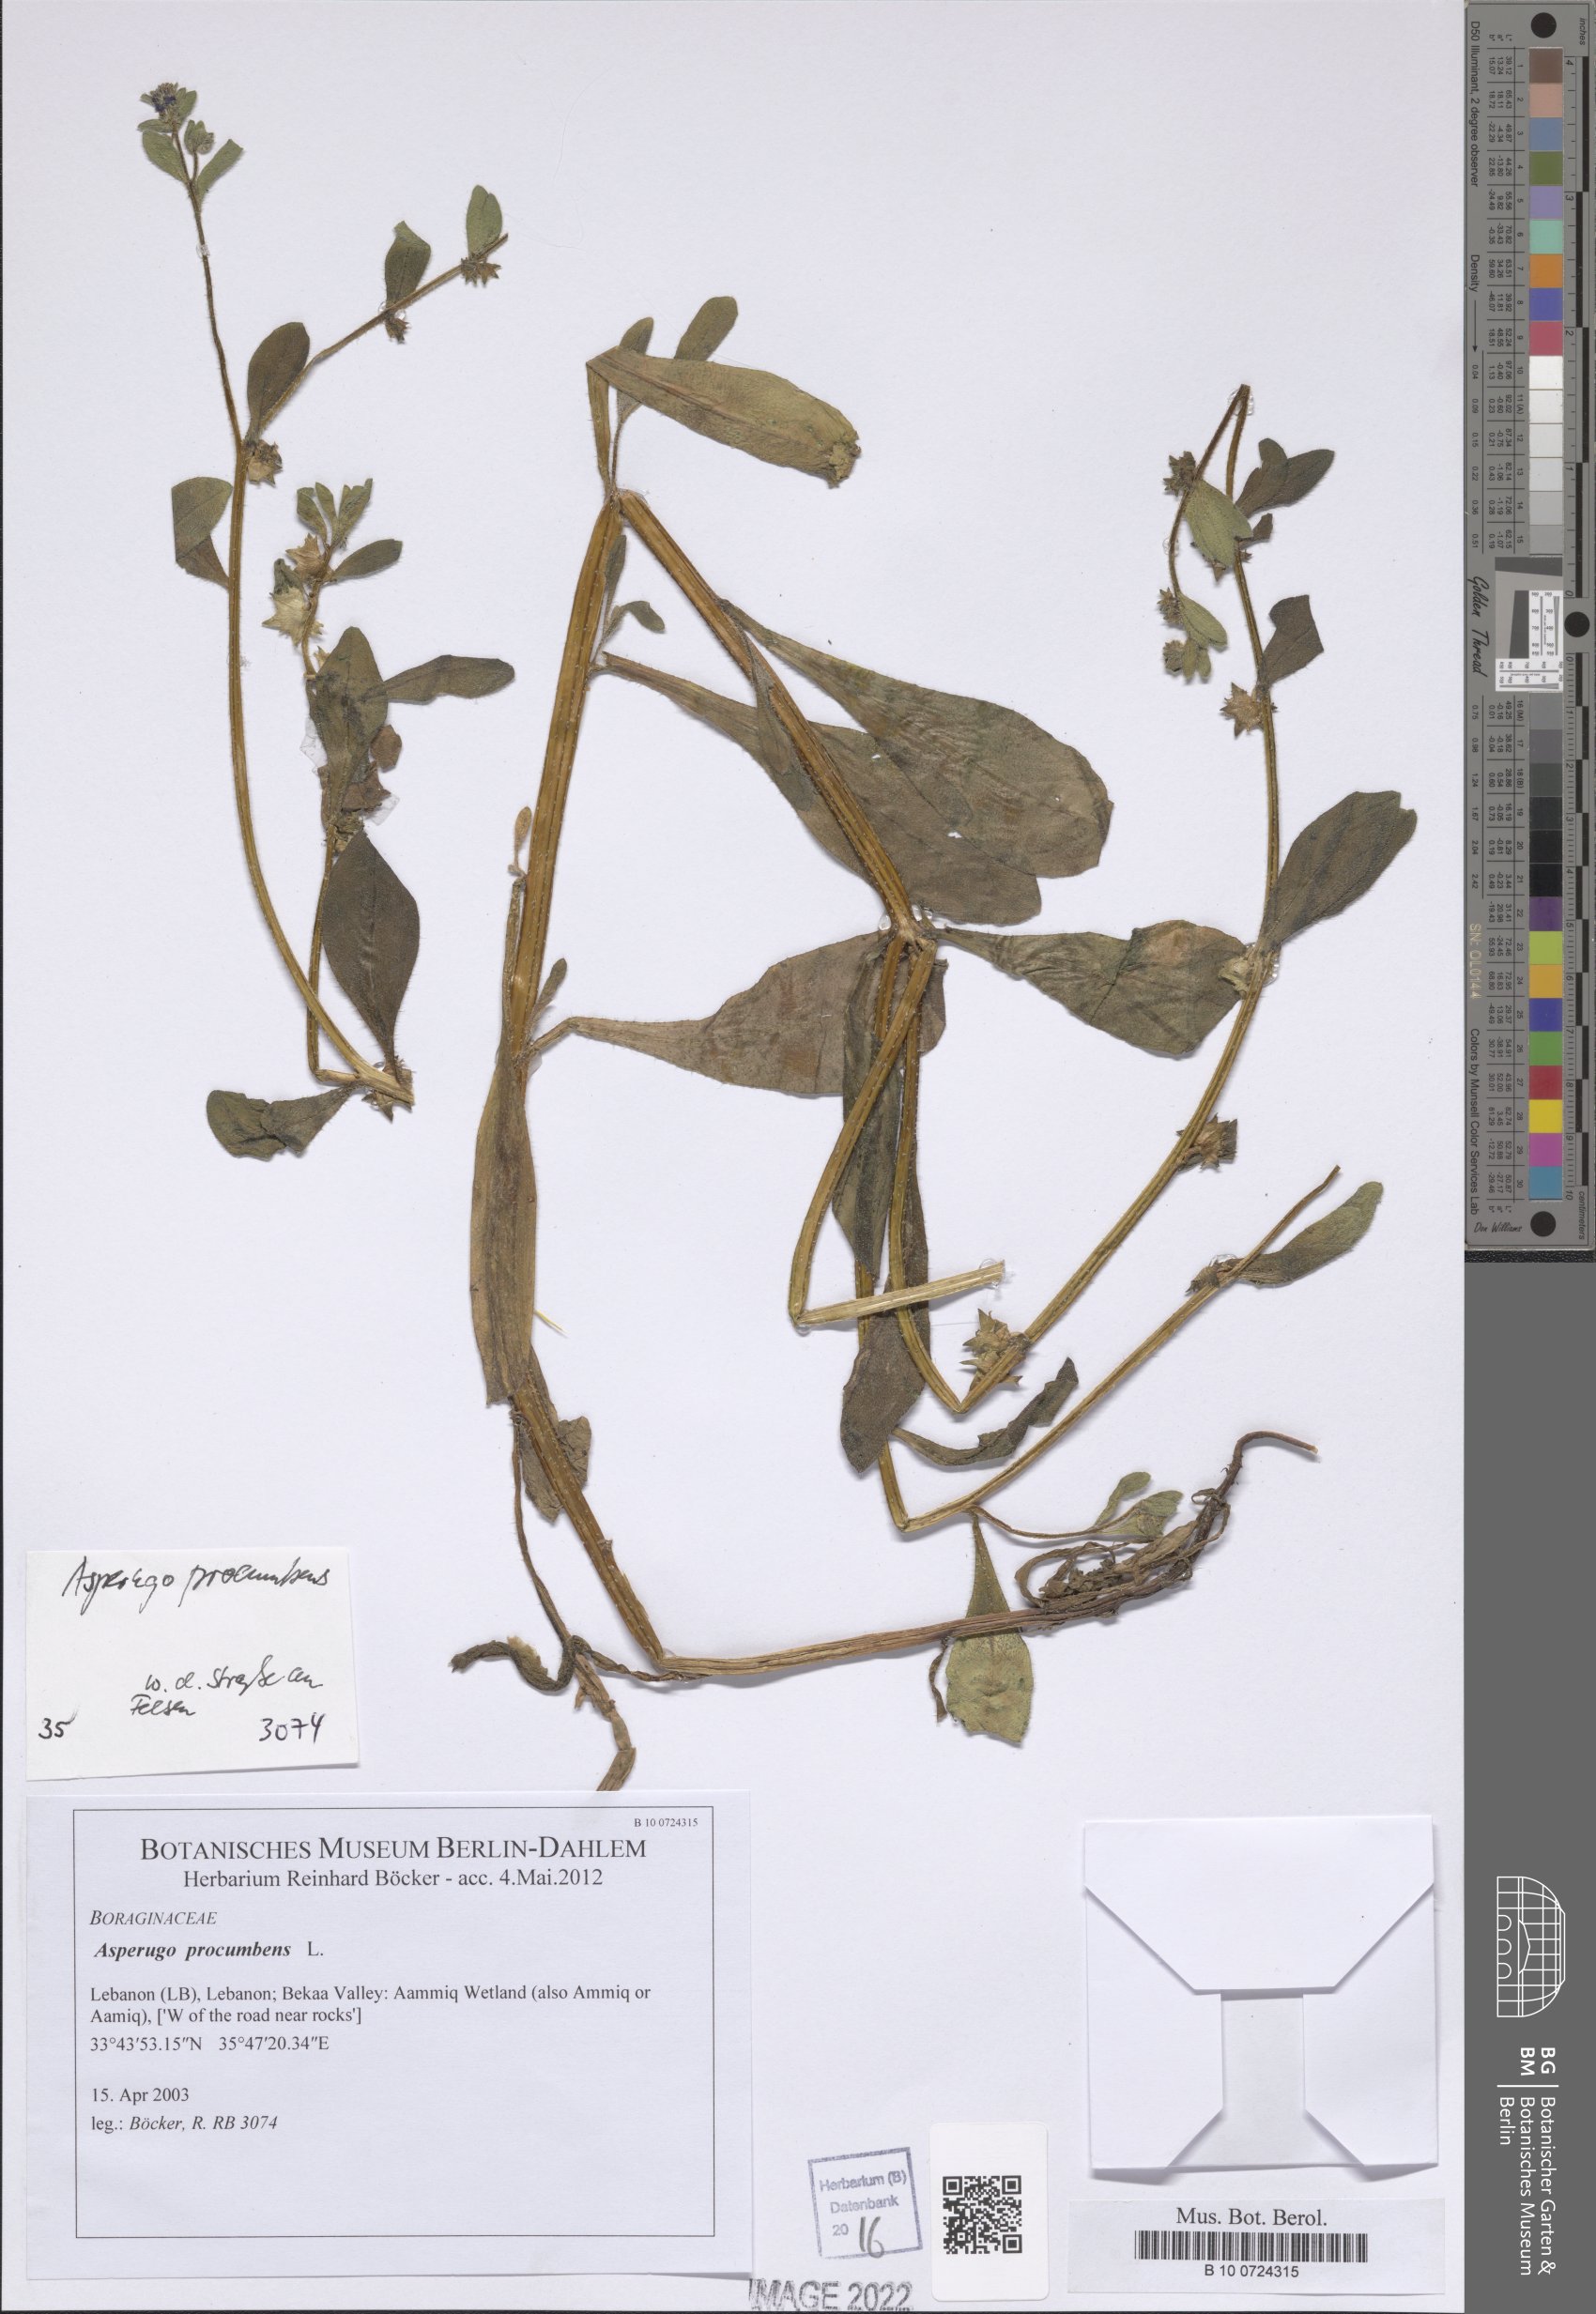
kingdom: Plantae
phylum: Tracheophyta
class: Magnoliopsida
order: Boraginales
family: Boraginaceae
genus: Asperugo
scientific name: Asperugo procumbens
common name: Madwort
